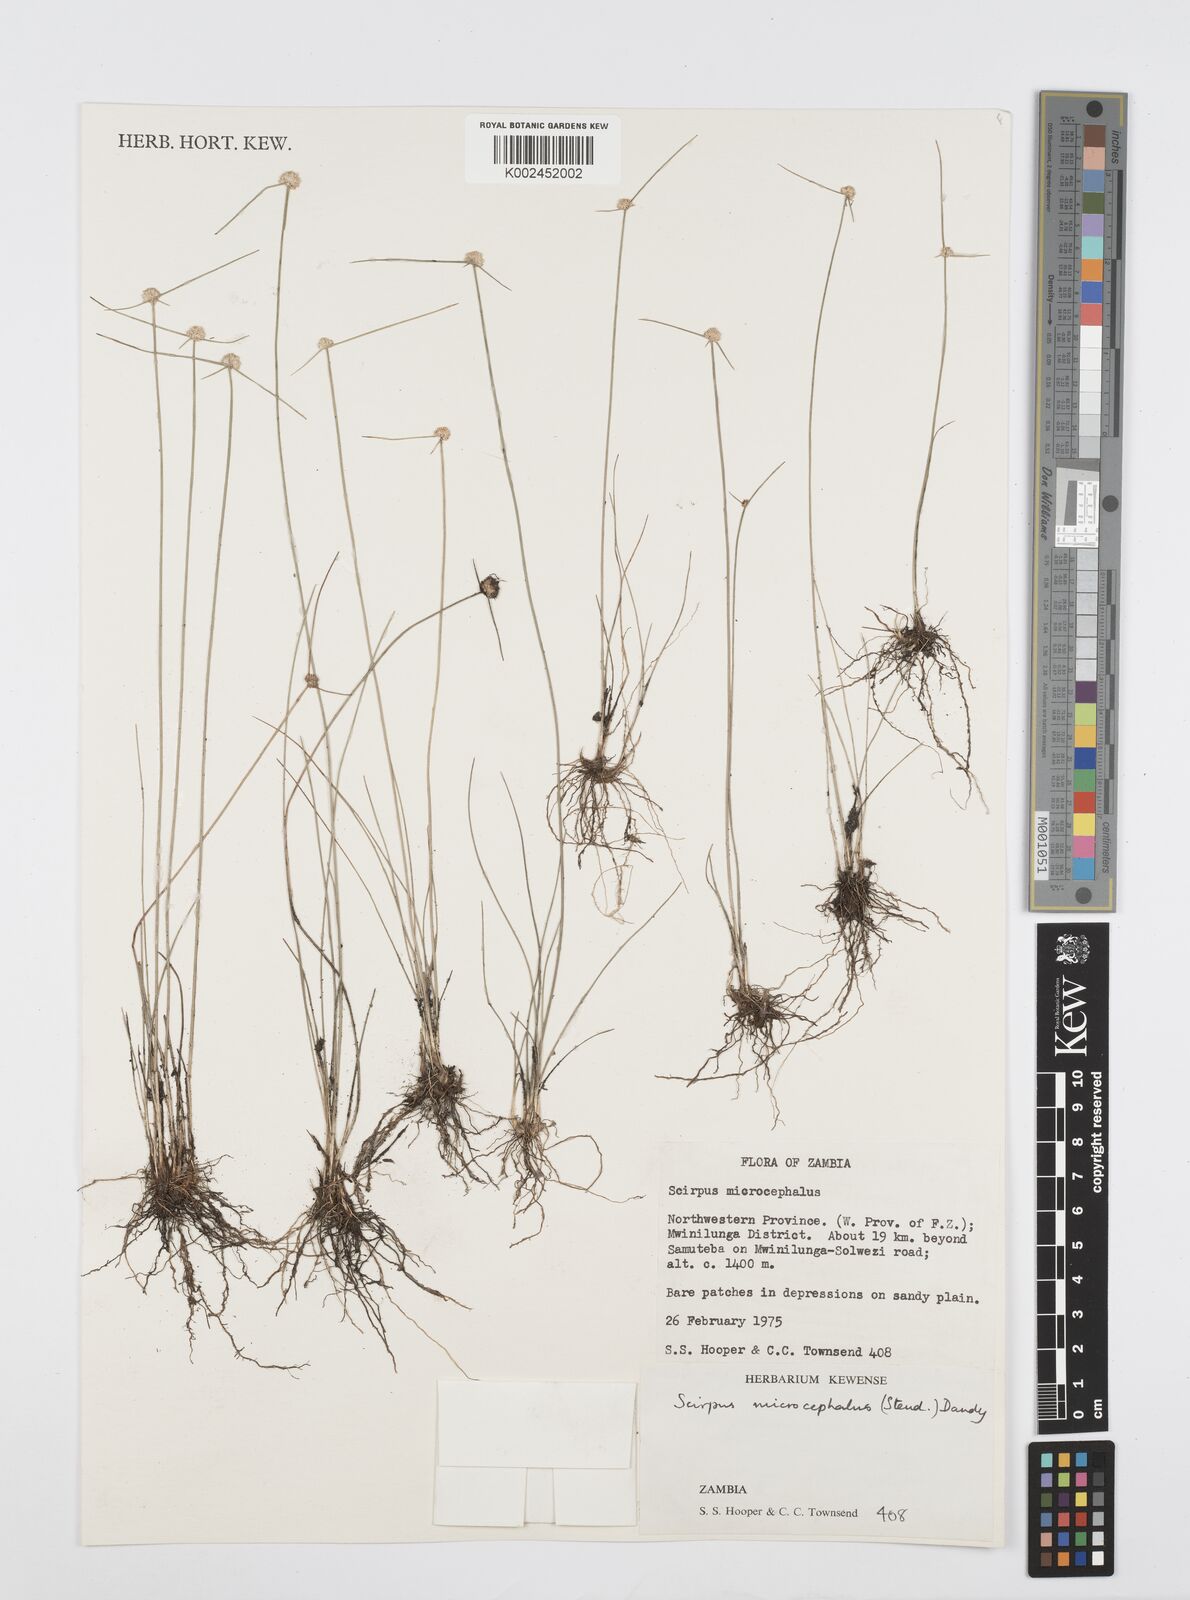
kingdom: Plantae
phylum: Tracheophyta
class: Liliopsida
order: Poales
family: Cyperaceae
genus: Cyperus
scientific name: Cyperus microcephalus
